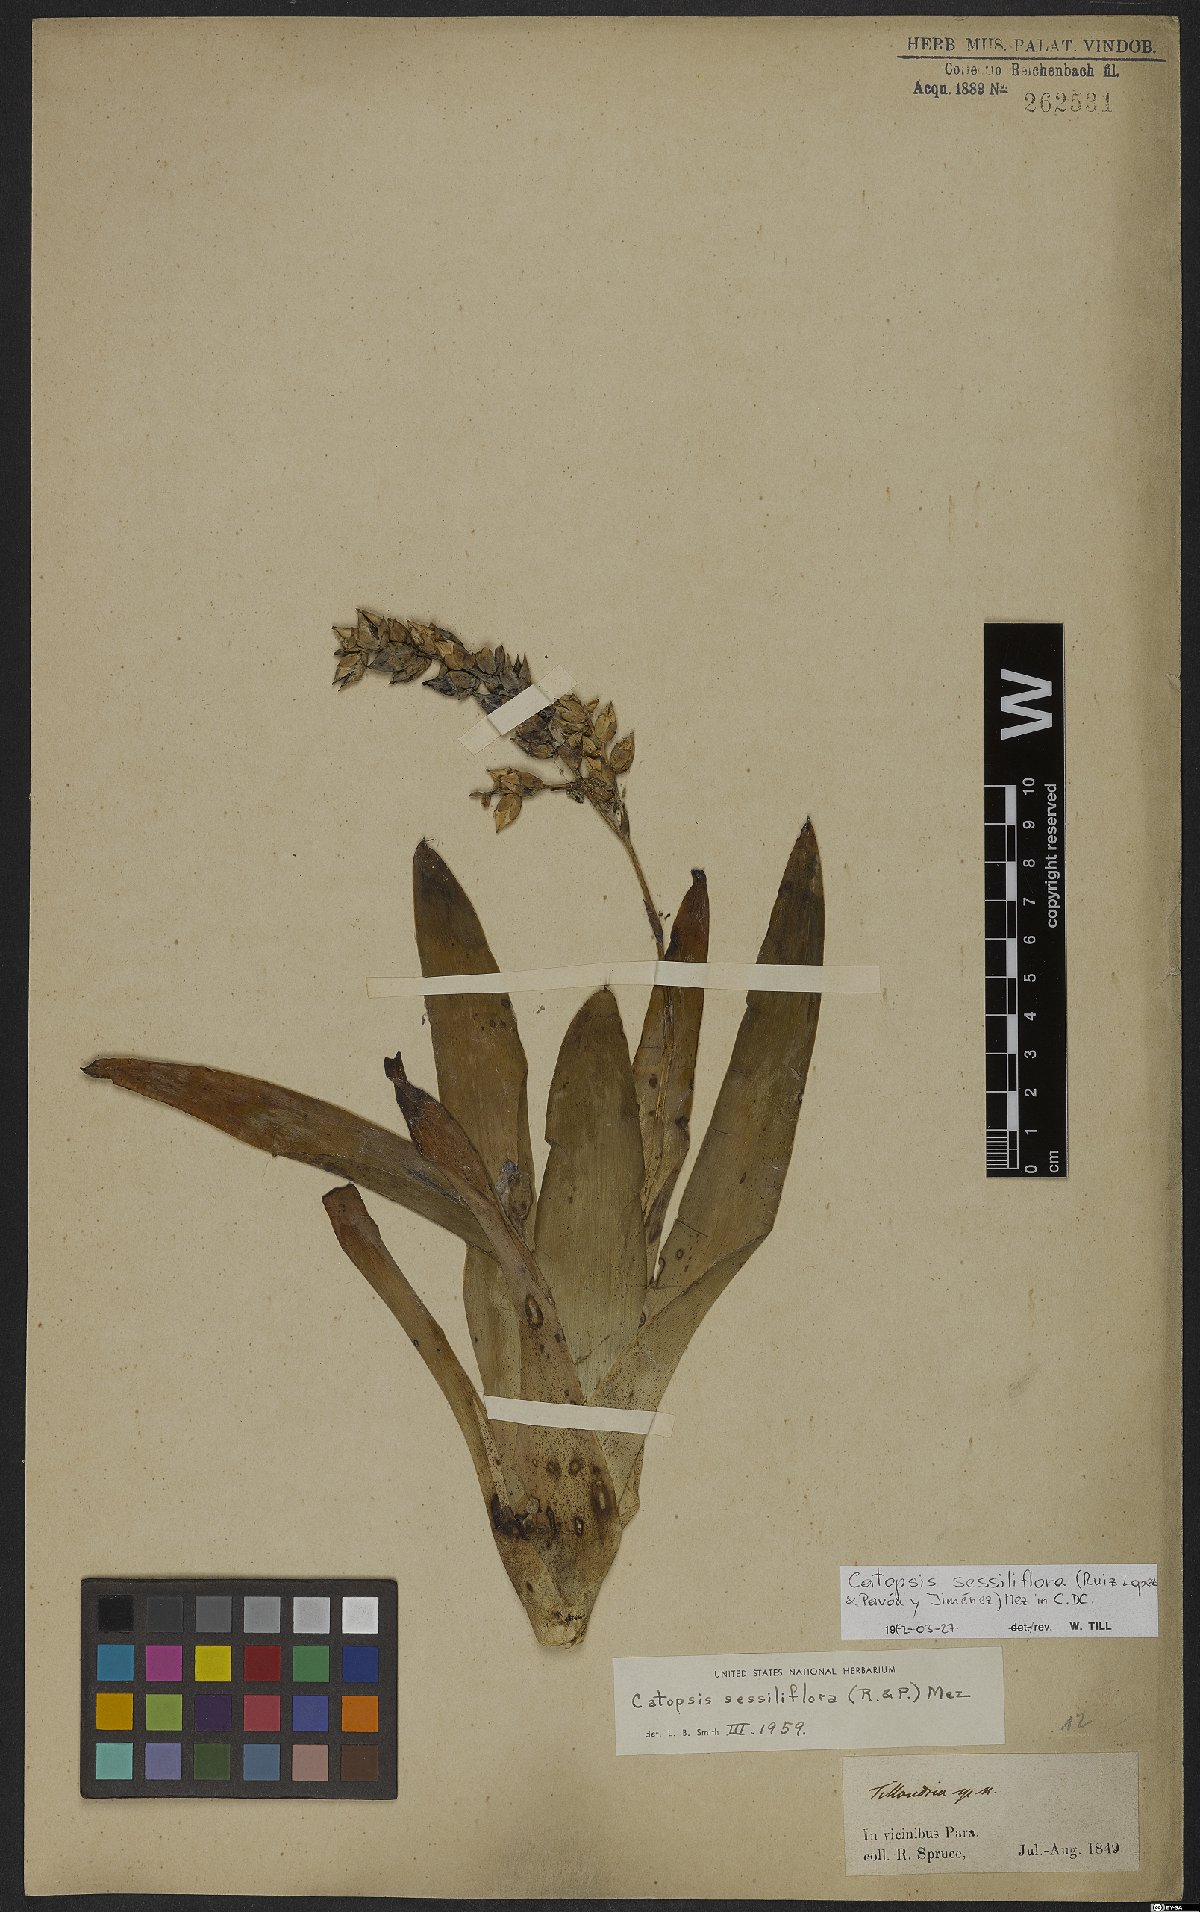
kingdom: Plantae
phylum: Tracheophyta
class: Liliopsida
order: Poales
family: Bromeliaceae
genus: Catopsis
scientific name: Catopsis sessiliflora
